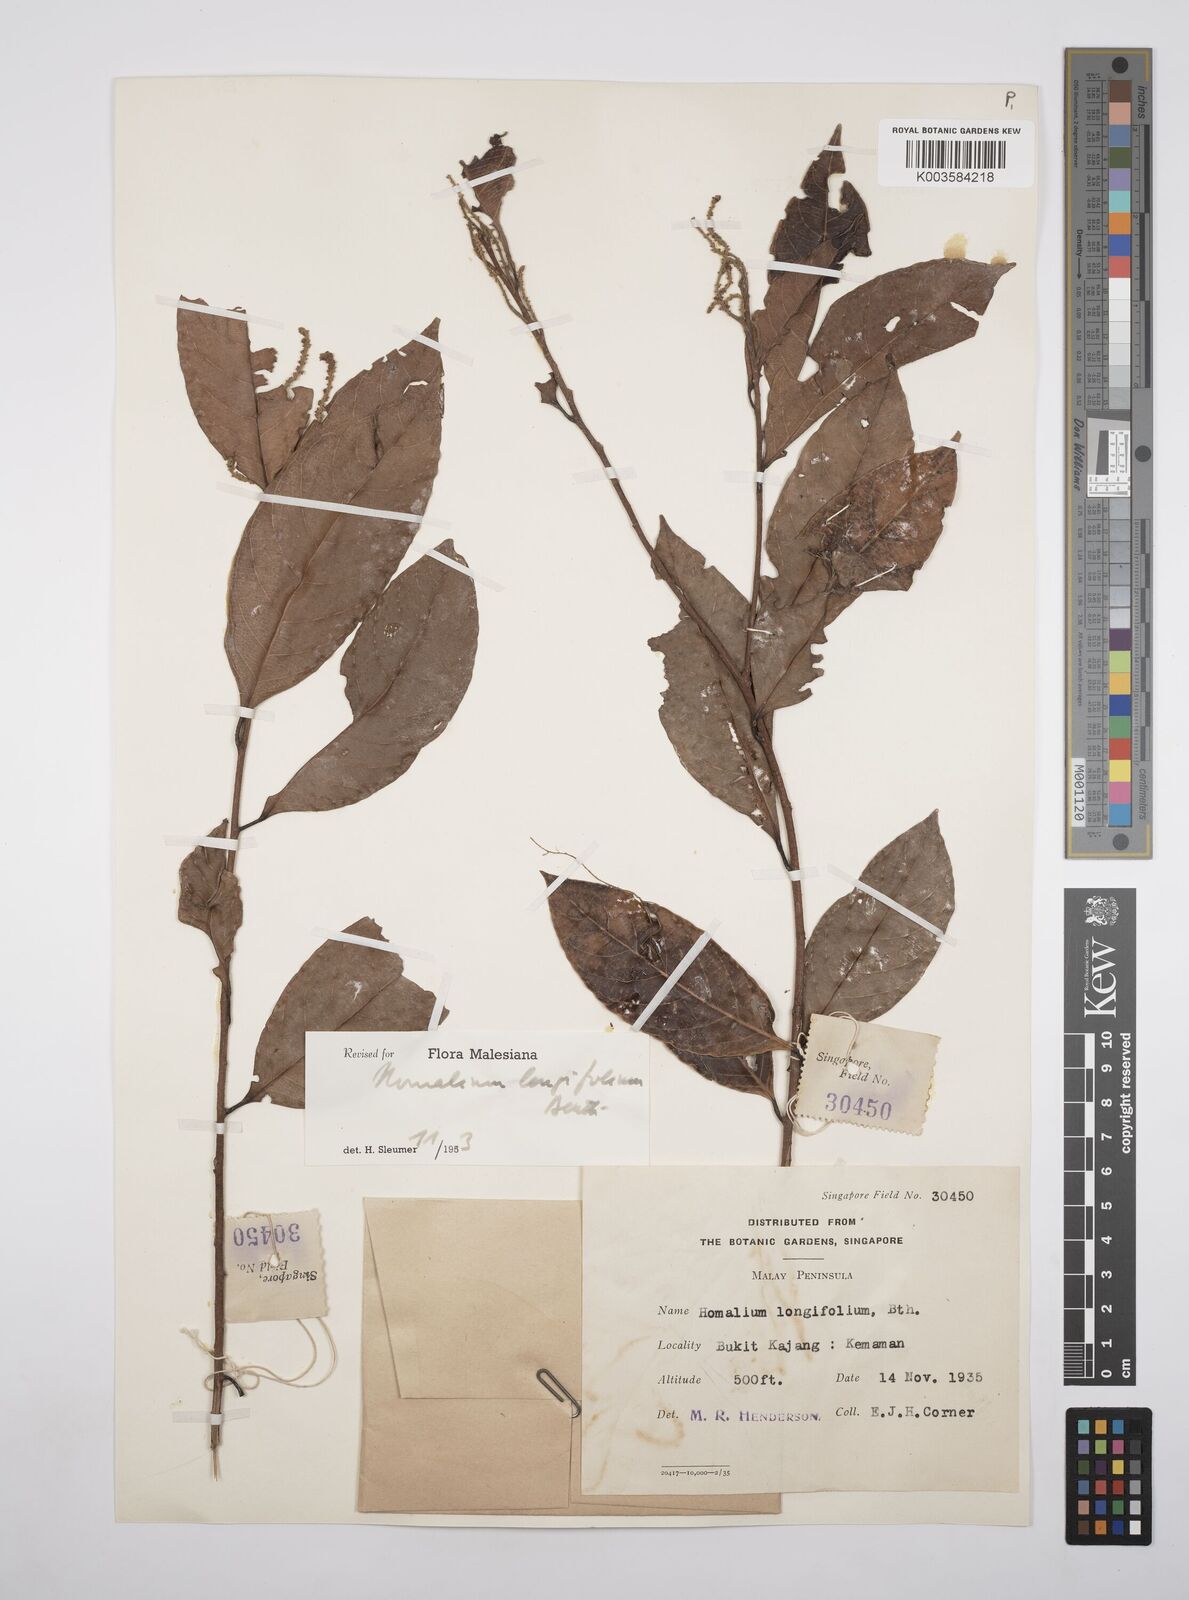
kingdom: Plantae
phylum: Tracheophyta
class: Magnoliopsida
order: Malpighiales
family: Salicaceae
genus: Homalium
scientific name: Homalium longifolium
